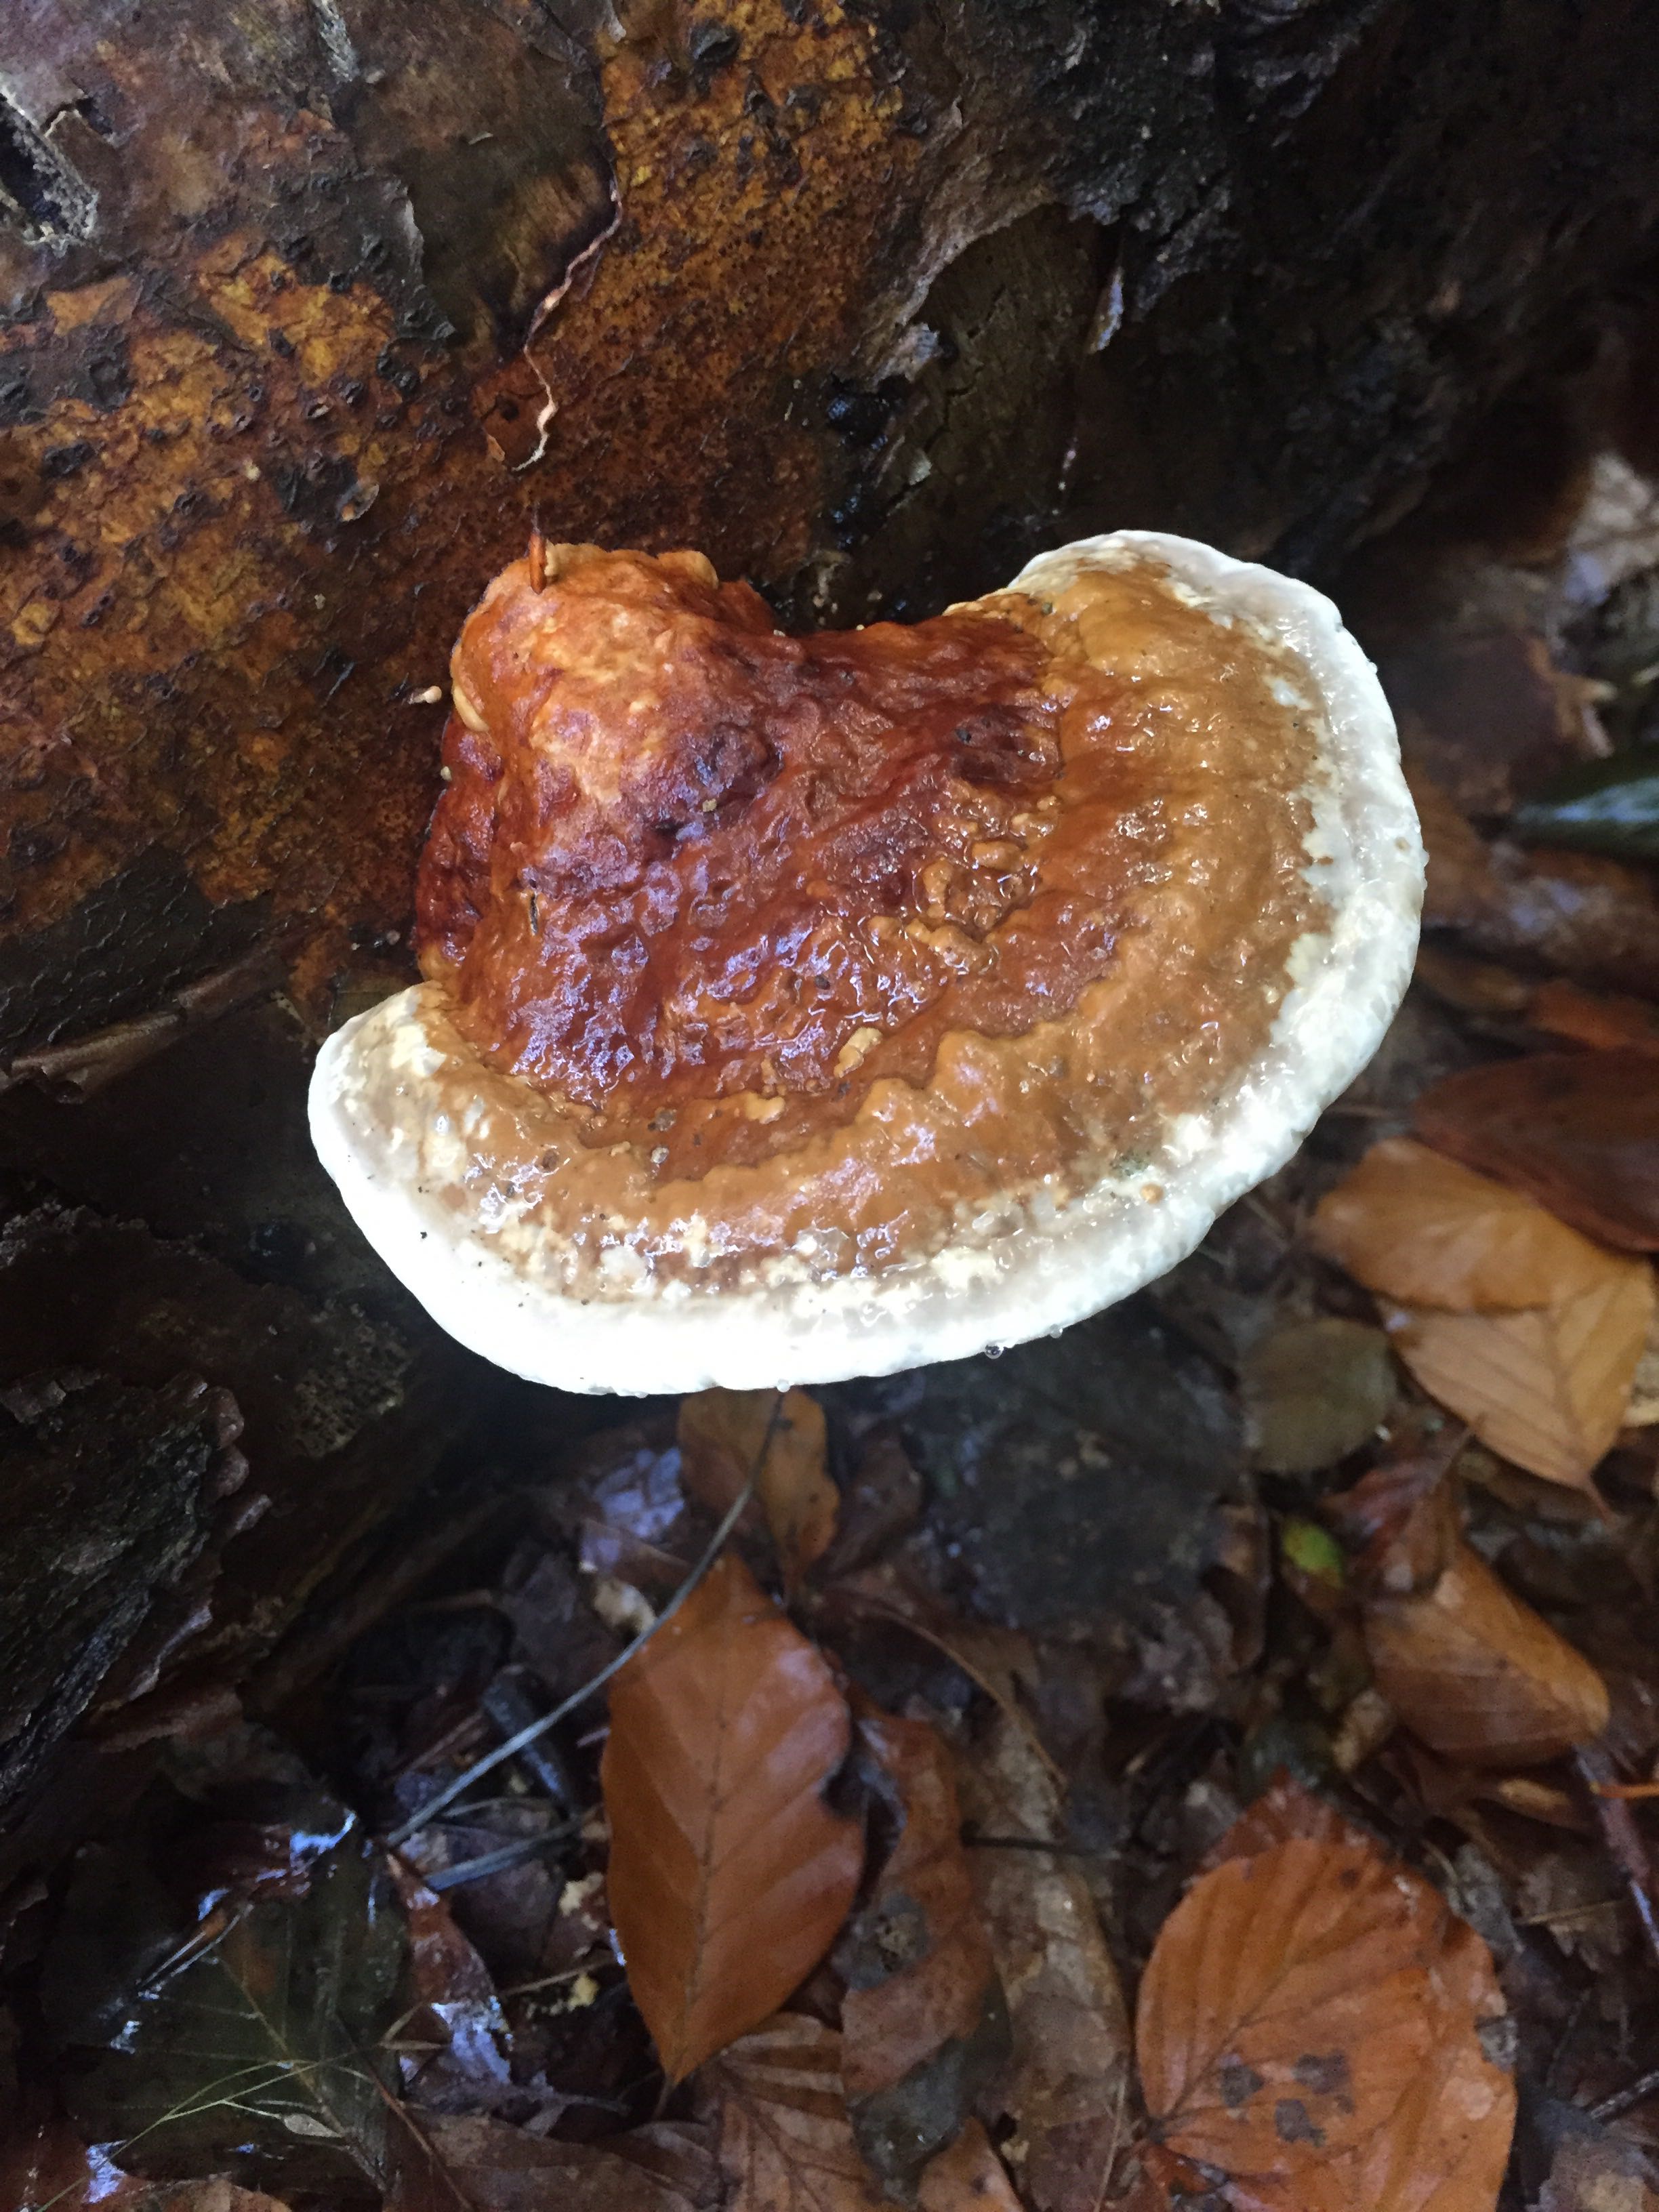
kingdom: Fungi
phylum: Basidiomycota
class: Agaricomycetes
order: Polyporales
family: Fomitopsidaceae
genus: Fomitopsis
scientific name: Fomitopsis pinicola
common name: randbæltet hovporesvamp
